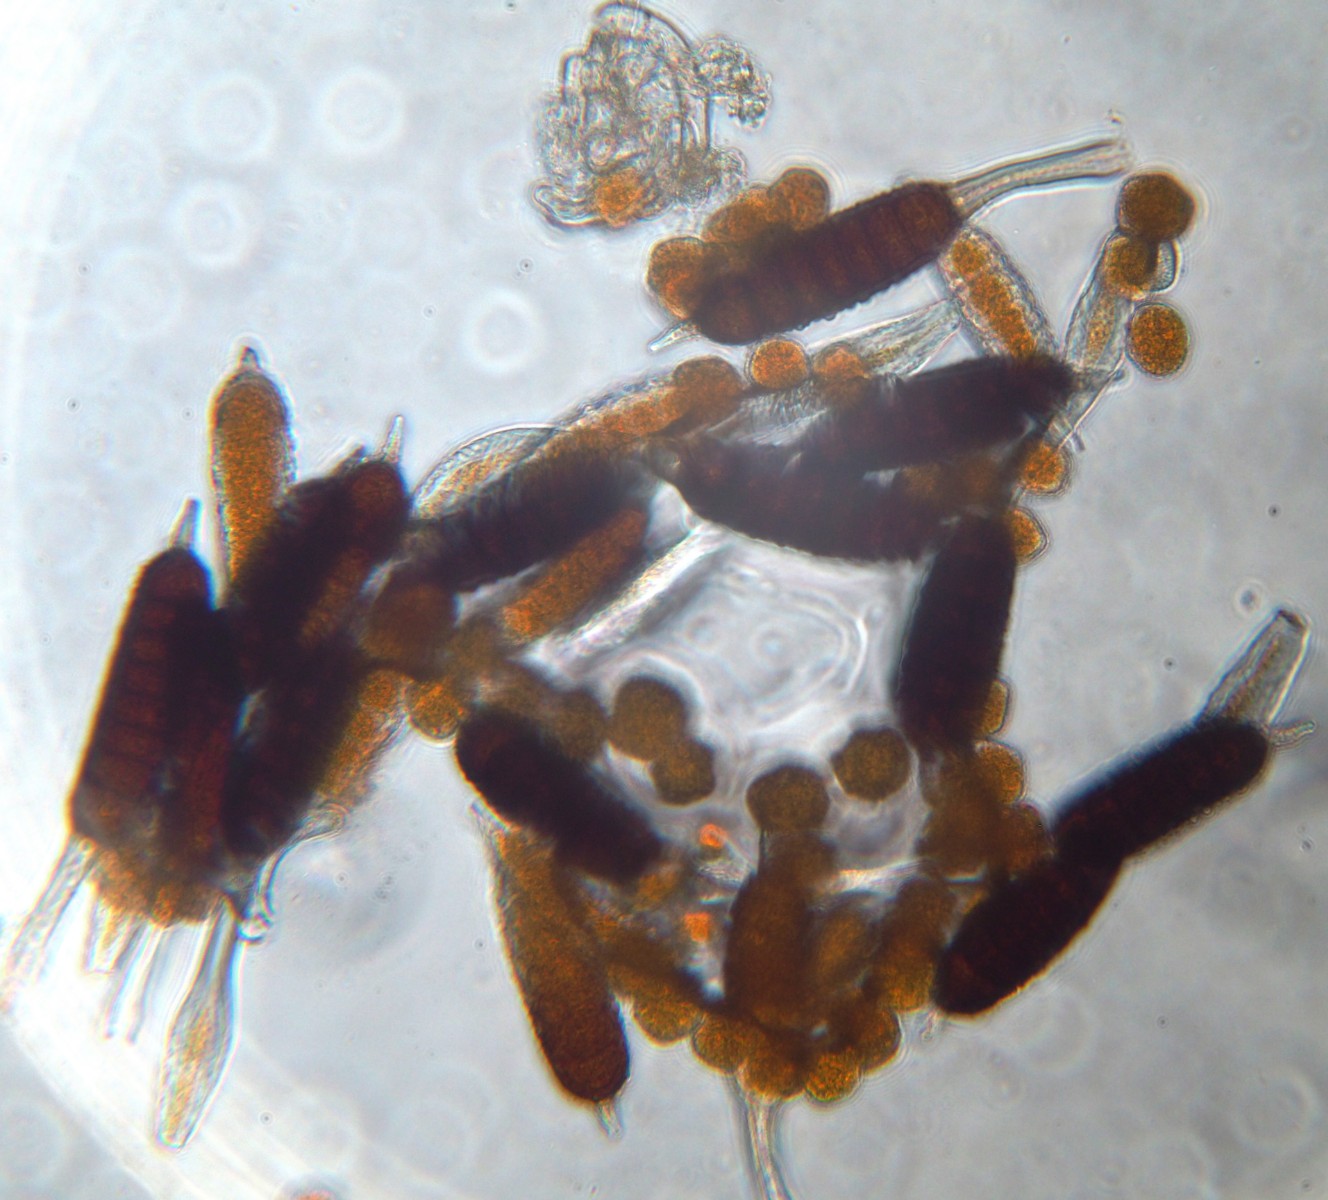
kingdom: Fungi
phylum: Basidiomycota
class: Pucciniomycetes
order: Pucciniales
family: Phragmidiaceae
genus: Phragmidium
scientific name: Phragmidium tuberculatum
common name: Rose rust
